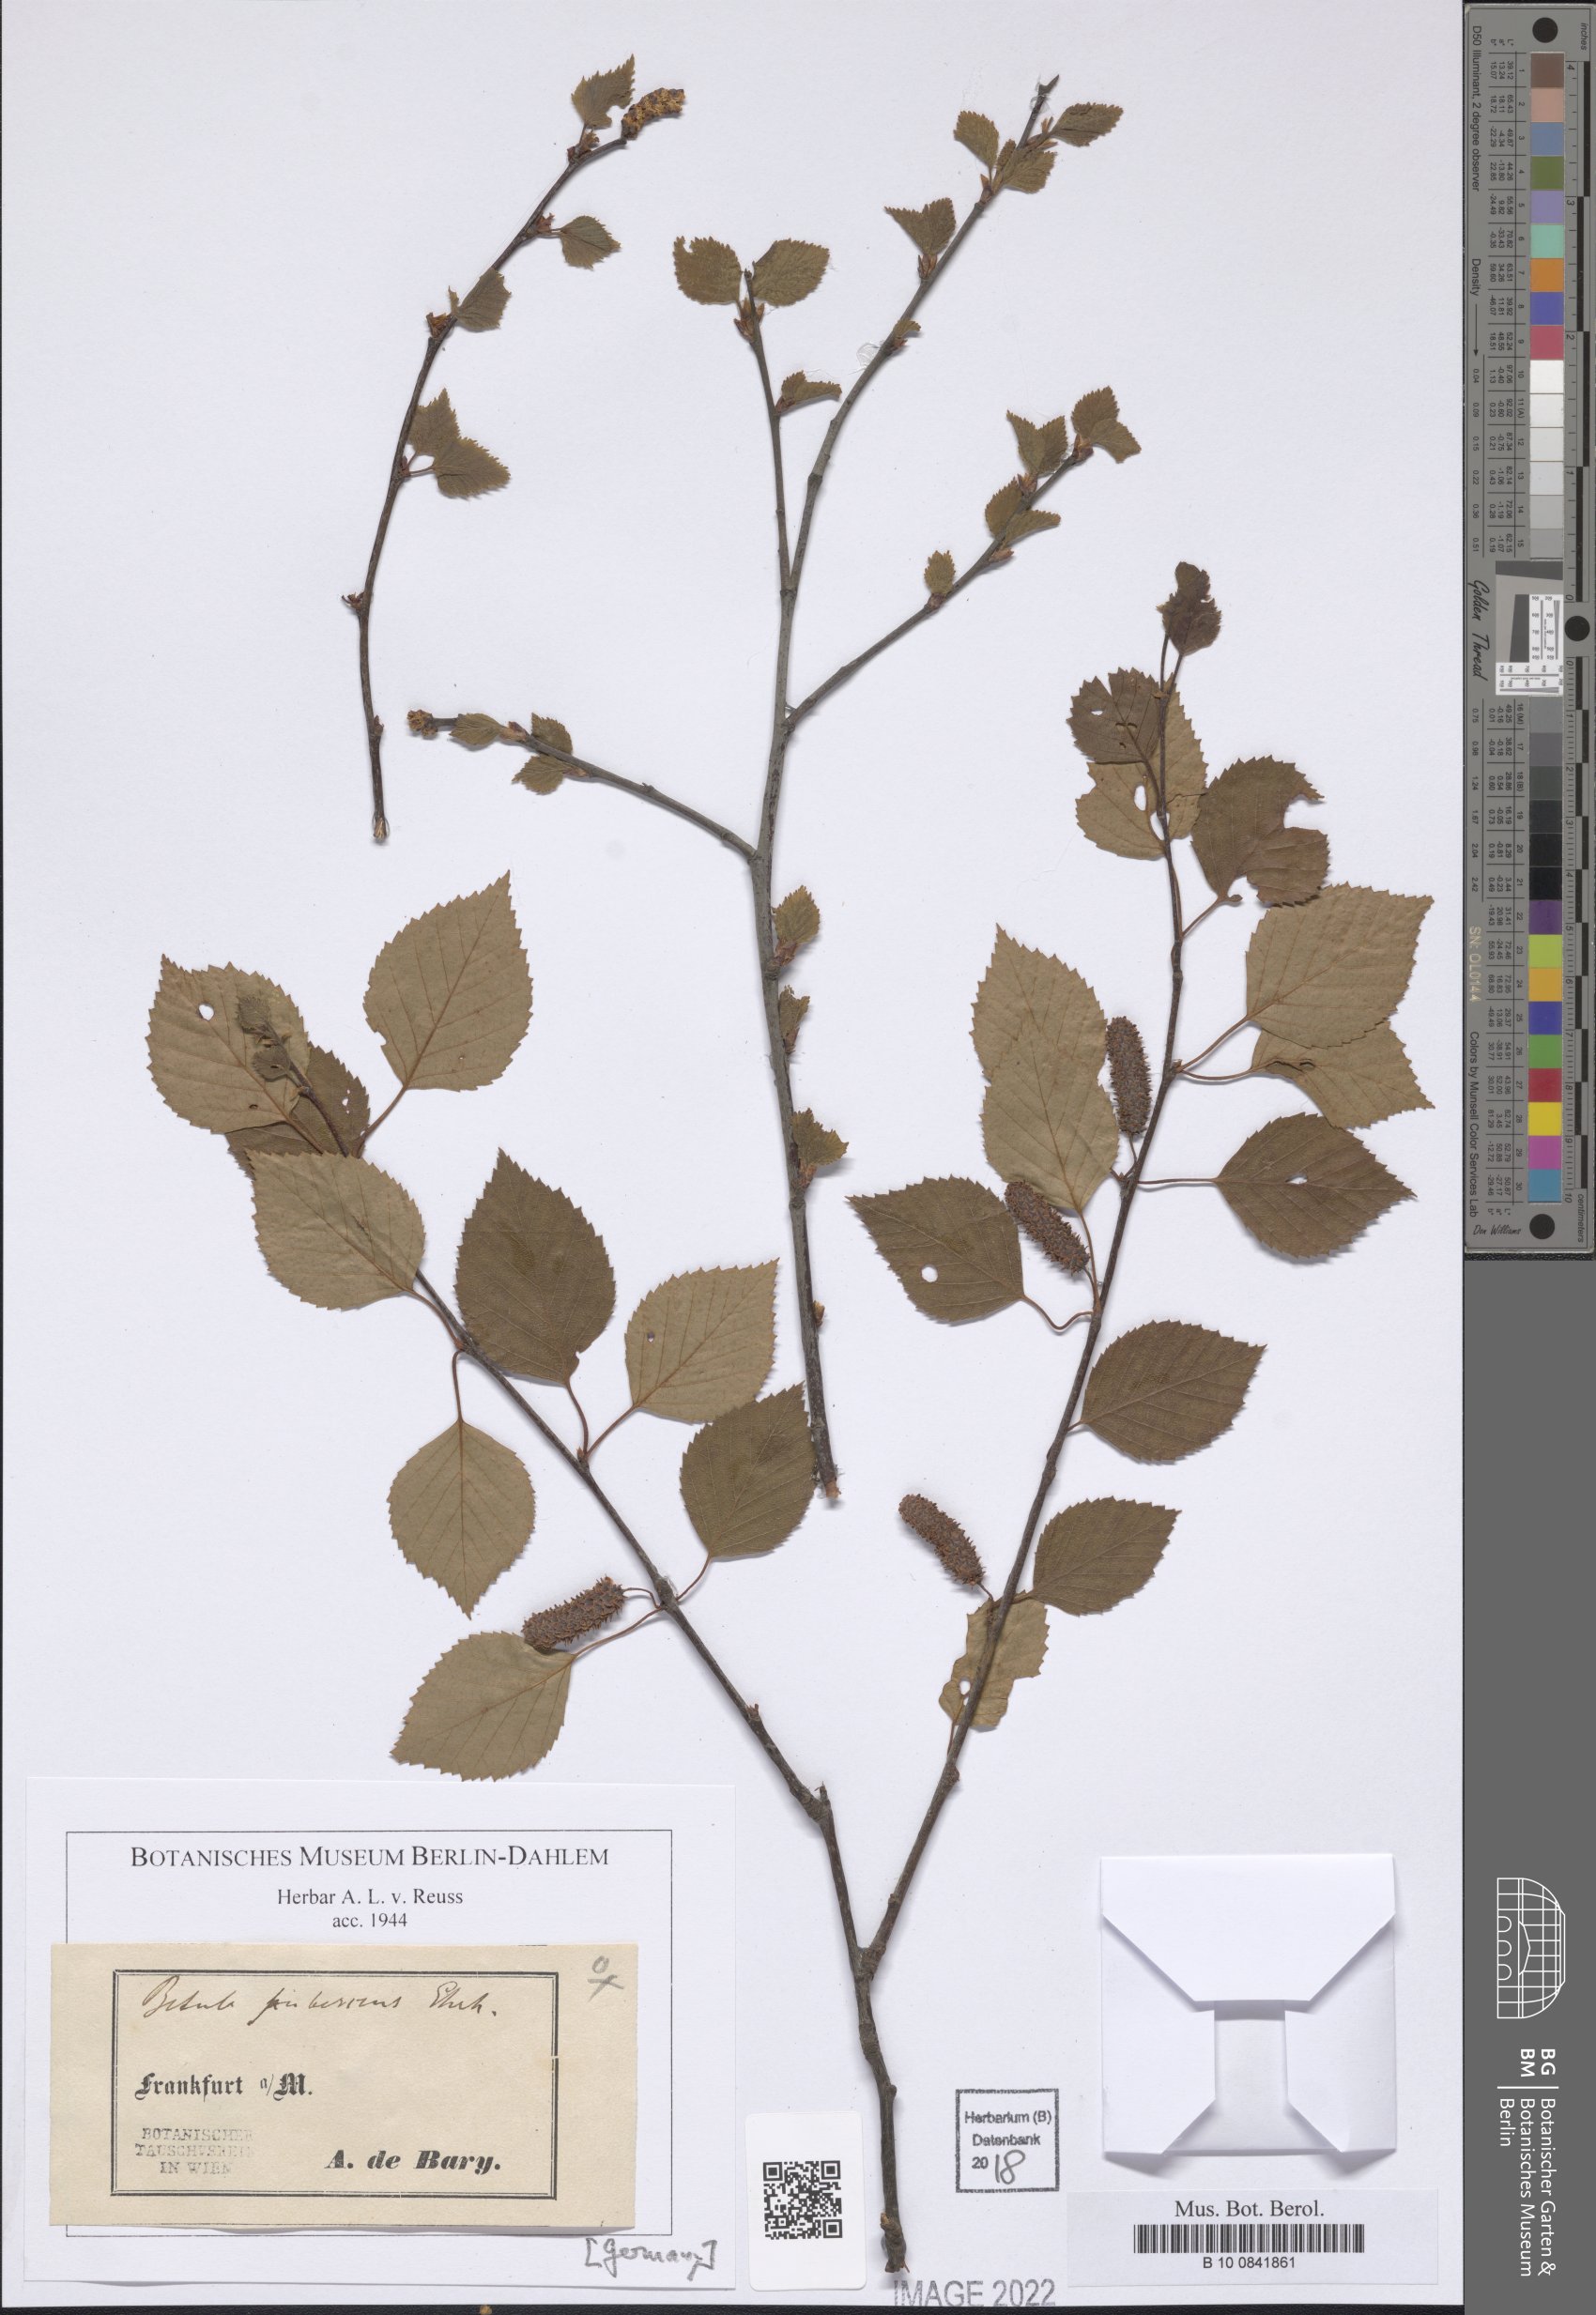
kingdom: Plantae
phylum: Tracheophyta
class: Magnoliopsida
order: Fagales
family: Betulaceae
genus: Betula
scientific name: Betula pubescens
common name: Downy birch
